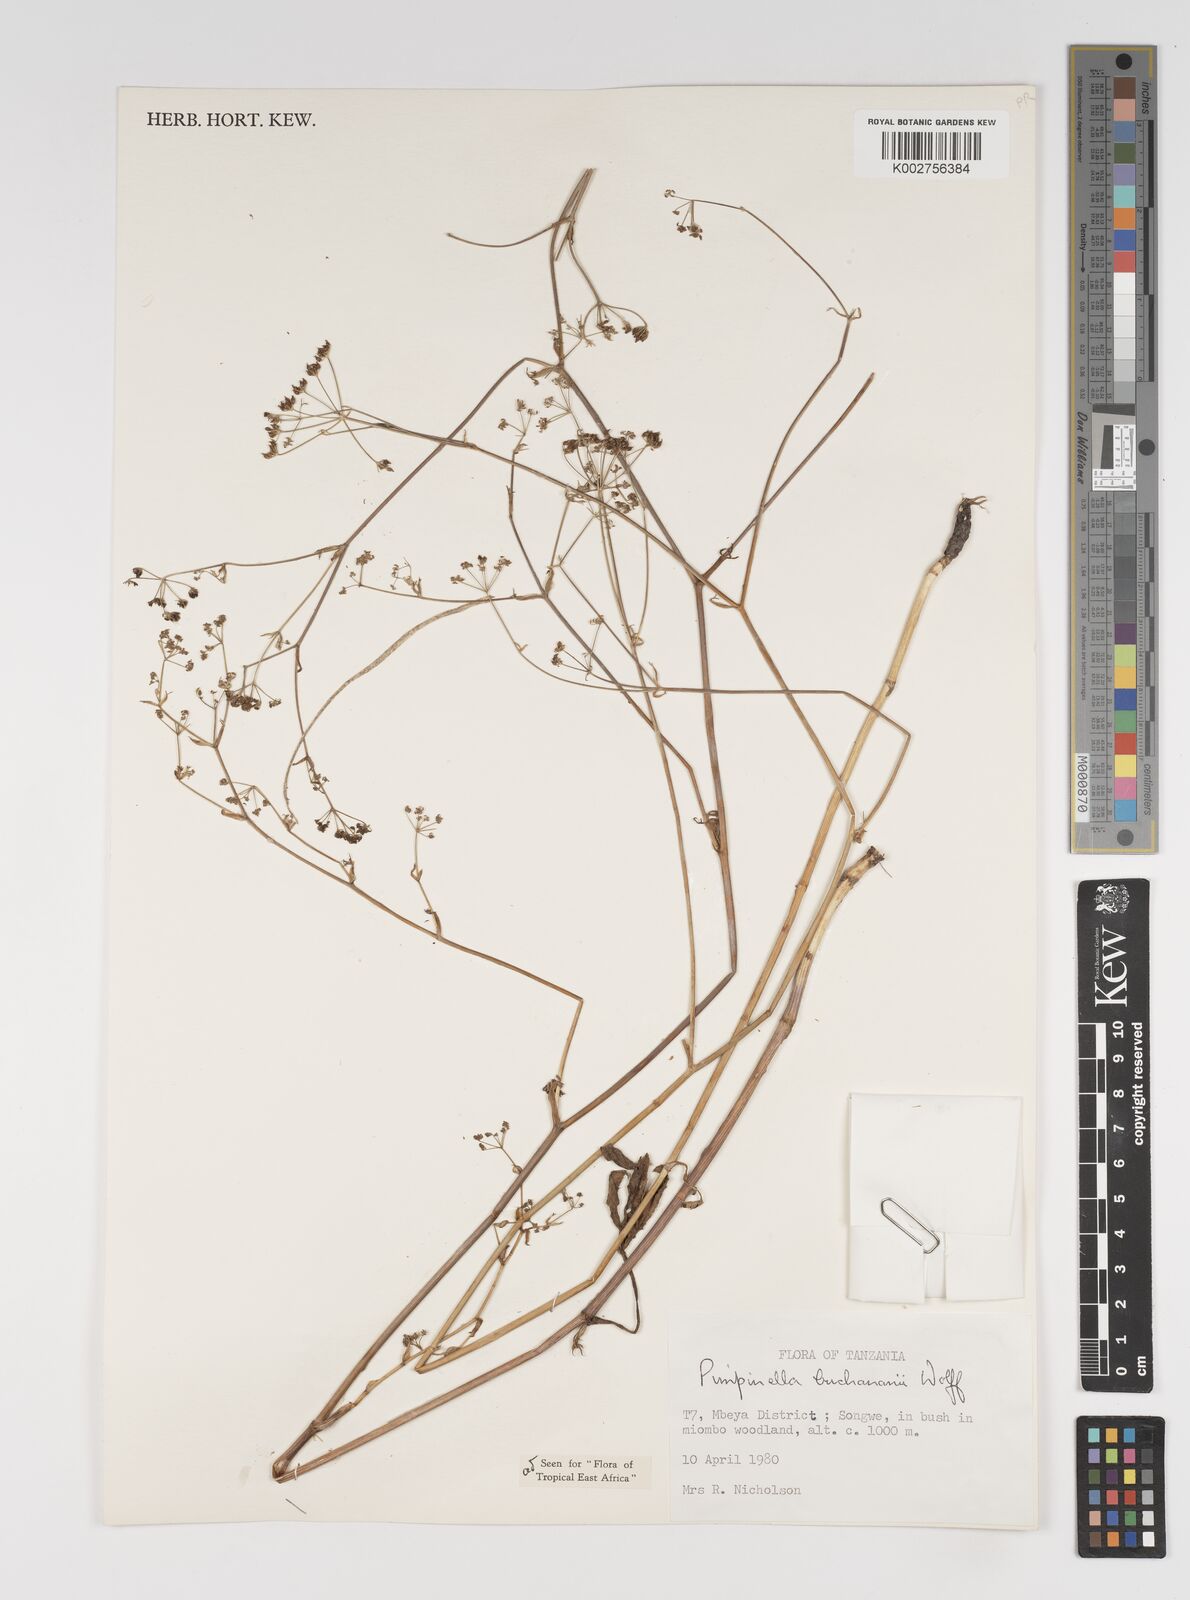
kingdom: Plantae
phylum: Tracheophyta
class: Magnoliopsida
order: Apiales
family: Apiaceae
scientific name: Apiaceae
